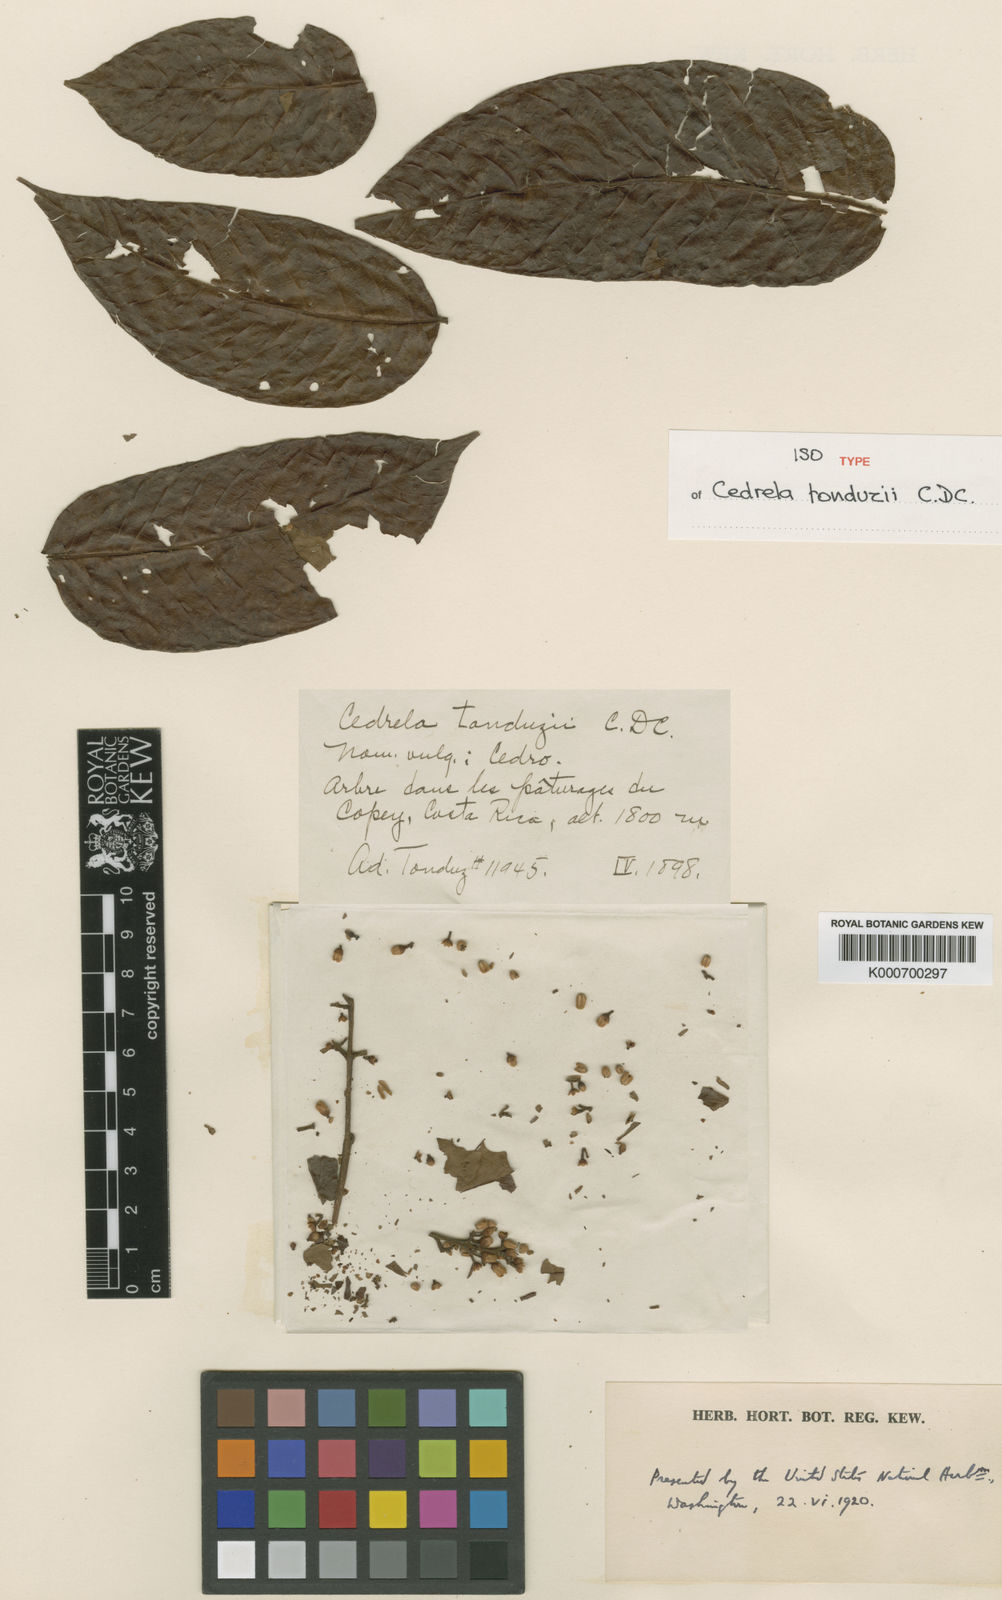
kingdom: Plantae
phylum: Tracheophyta
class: Magnoliopsida
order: Sapindales
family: Meliaceae
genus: Cedrela
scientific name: Cedrela tonduzii
